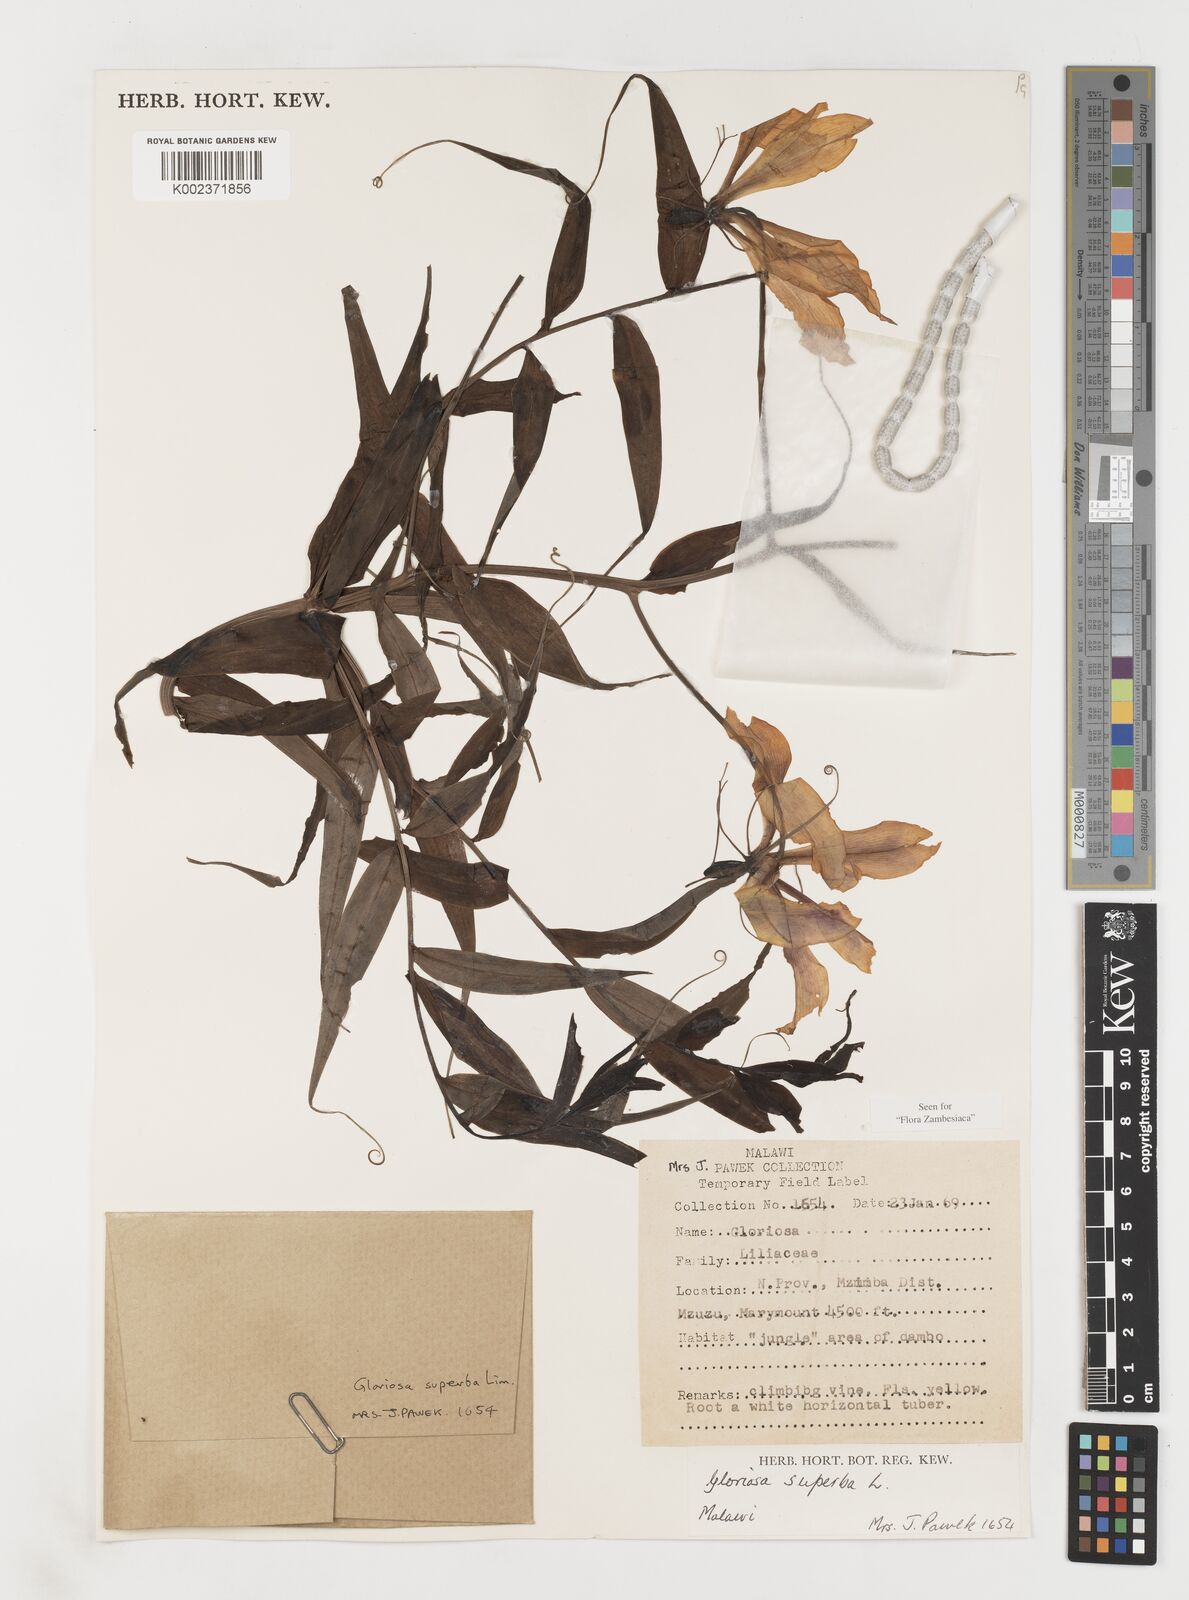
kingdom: Plantae
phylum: Tracheophyta
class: Liliopsida
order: Liliales
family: Colchicaceae
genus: Gloriosa
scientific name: Gloriosa simplex
